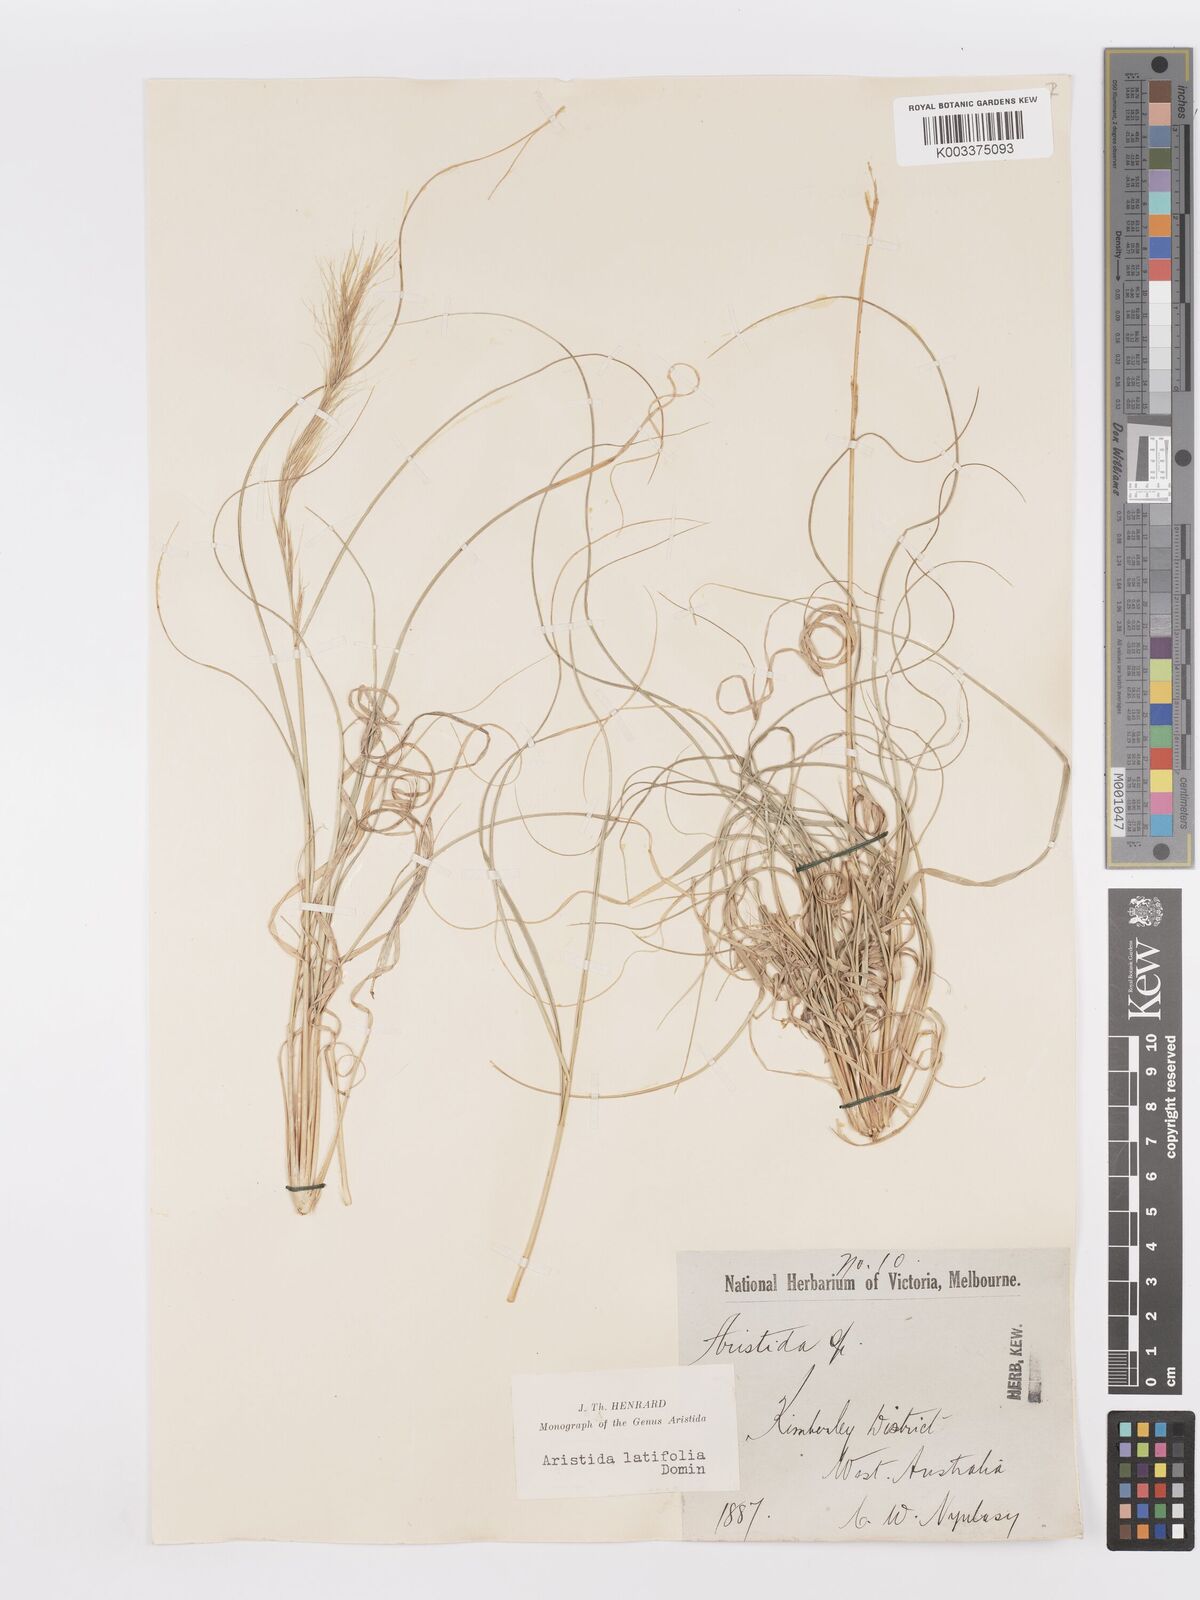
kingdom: Plantae
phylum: Tracheophyta
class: Liliopsida
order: Poales
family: Poaceae
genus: Aristida
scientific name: Aristida latifolia
